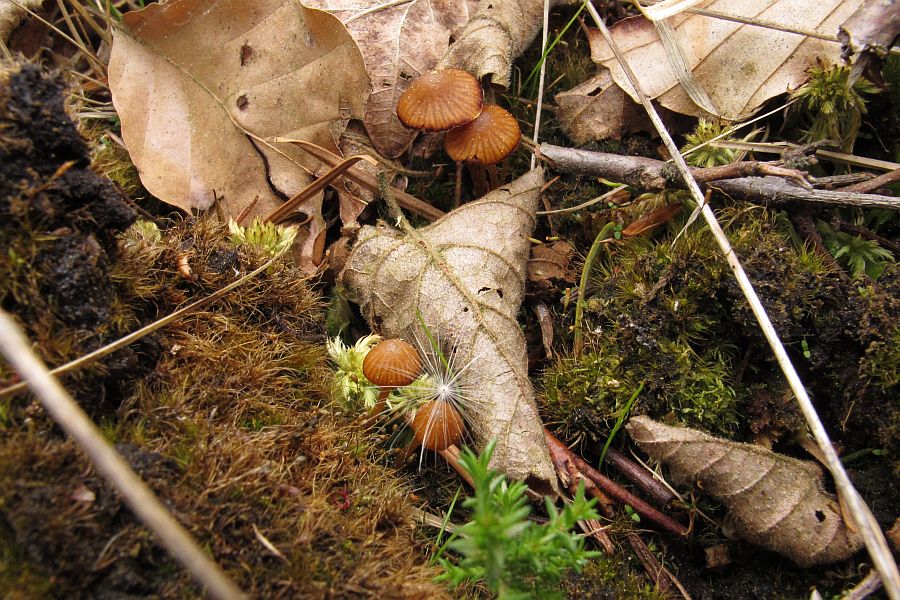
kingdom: Fungi
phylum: Basidiomycota
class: Agaricomycetes
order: Agaricales
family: Hymenogastraceae
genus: Galerina
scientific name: Galerina hypnorum
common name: mos-hjelmhat
